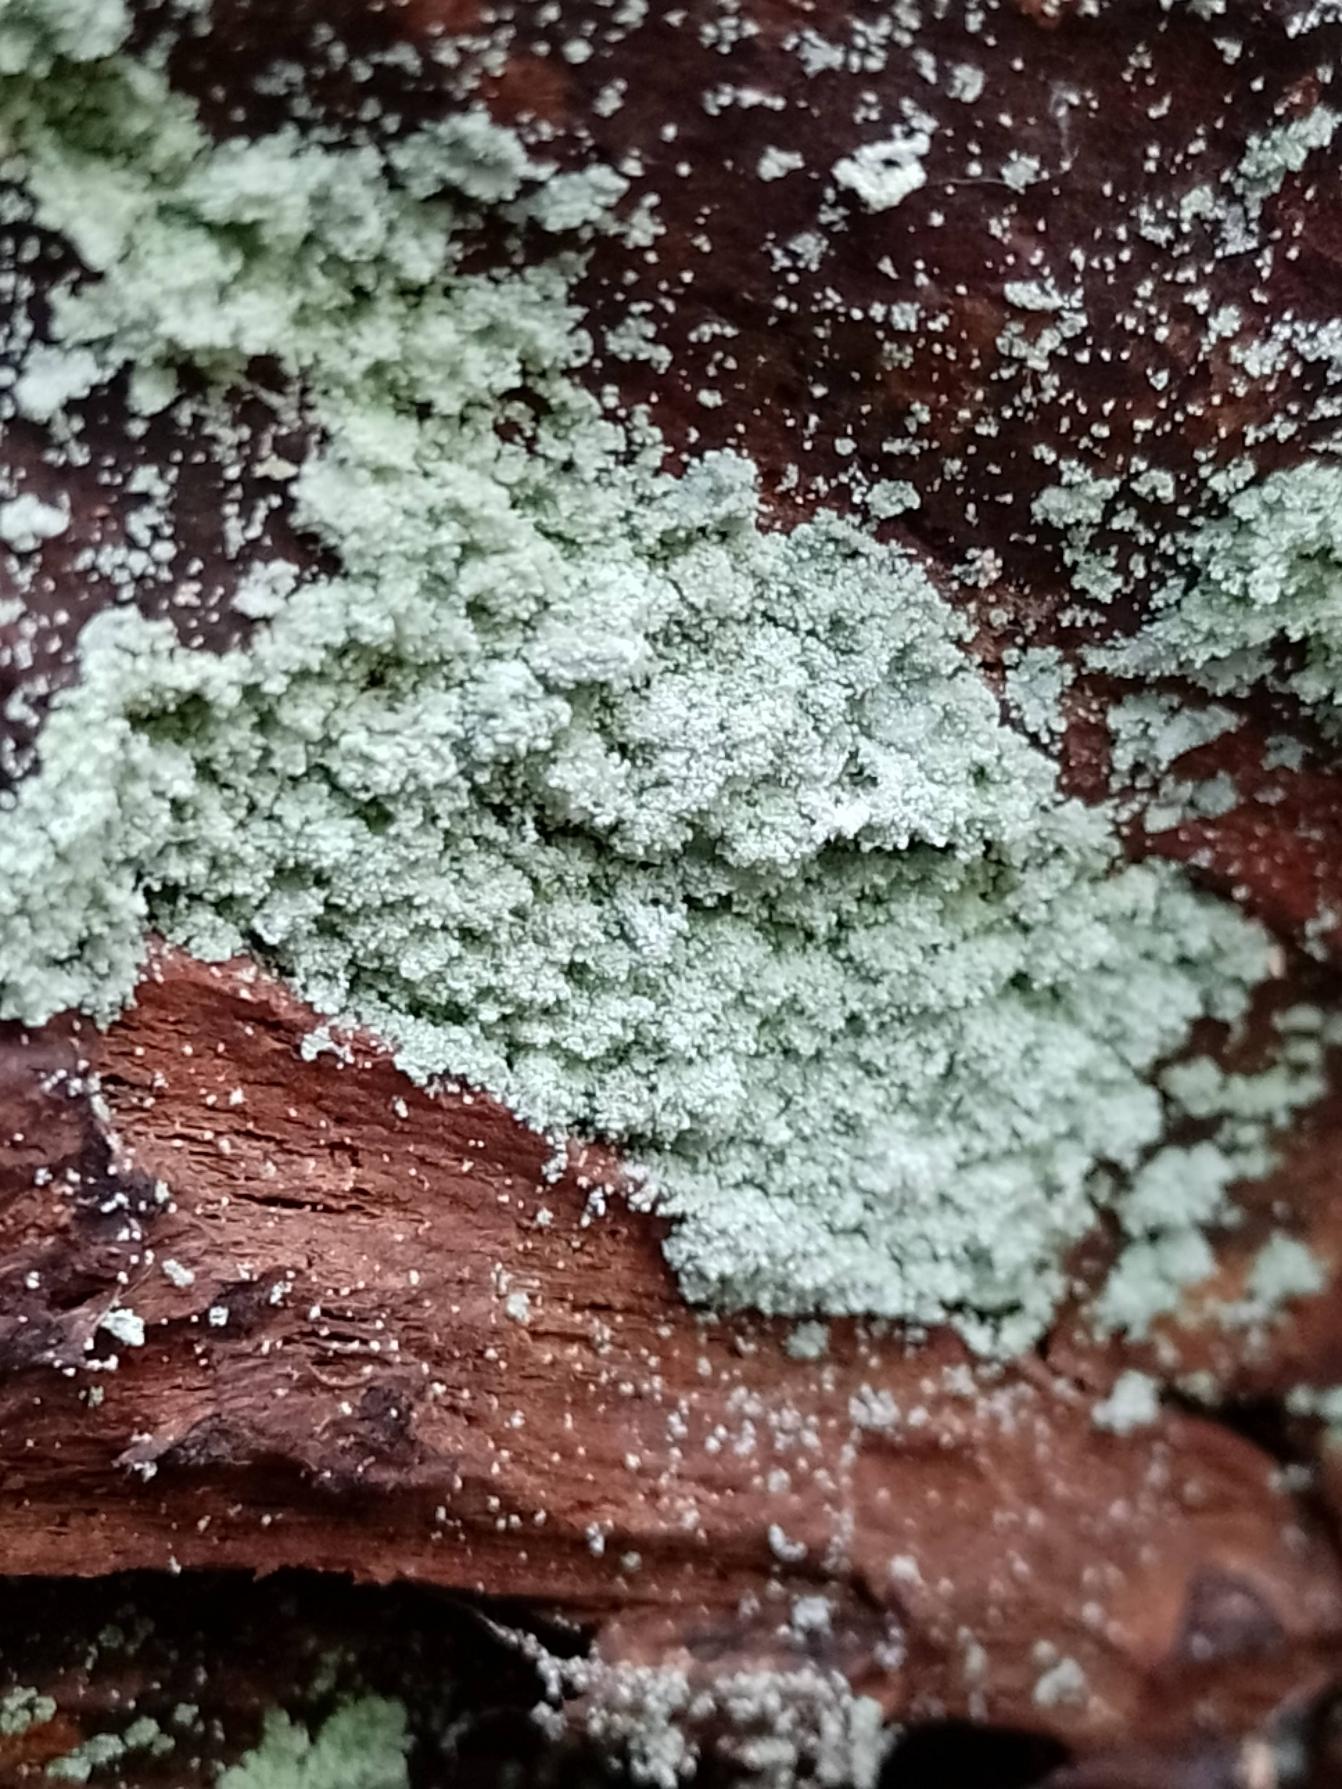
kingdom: Fungi
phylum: Ascomycota
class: Lecanoromycetes
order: Lecanorales
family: Stereocaulaceae
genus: Lepraria
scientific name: Lepraria lobificans
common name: Grøn støvlav
